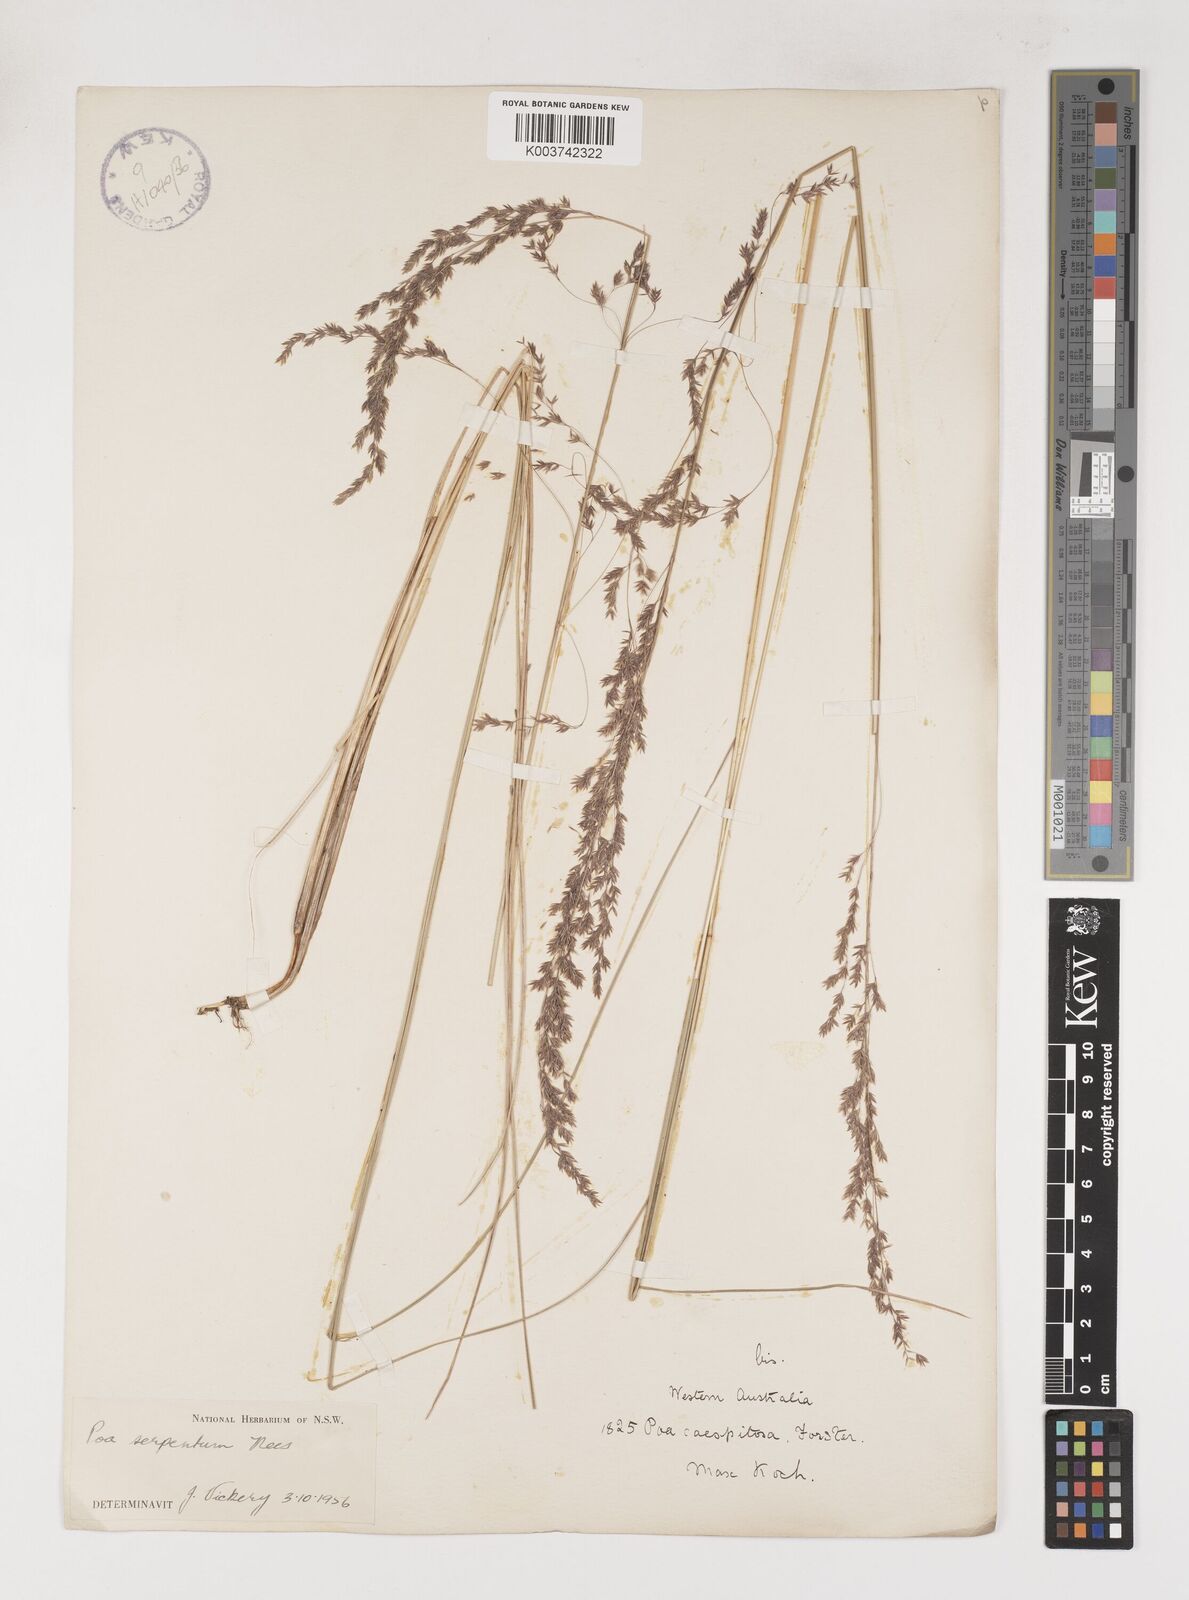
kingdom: Plantae
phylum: Tracheophyta
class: Liliopsida
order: Poales
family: Poaceae
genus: Poa
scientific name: Poa porphyroclados
